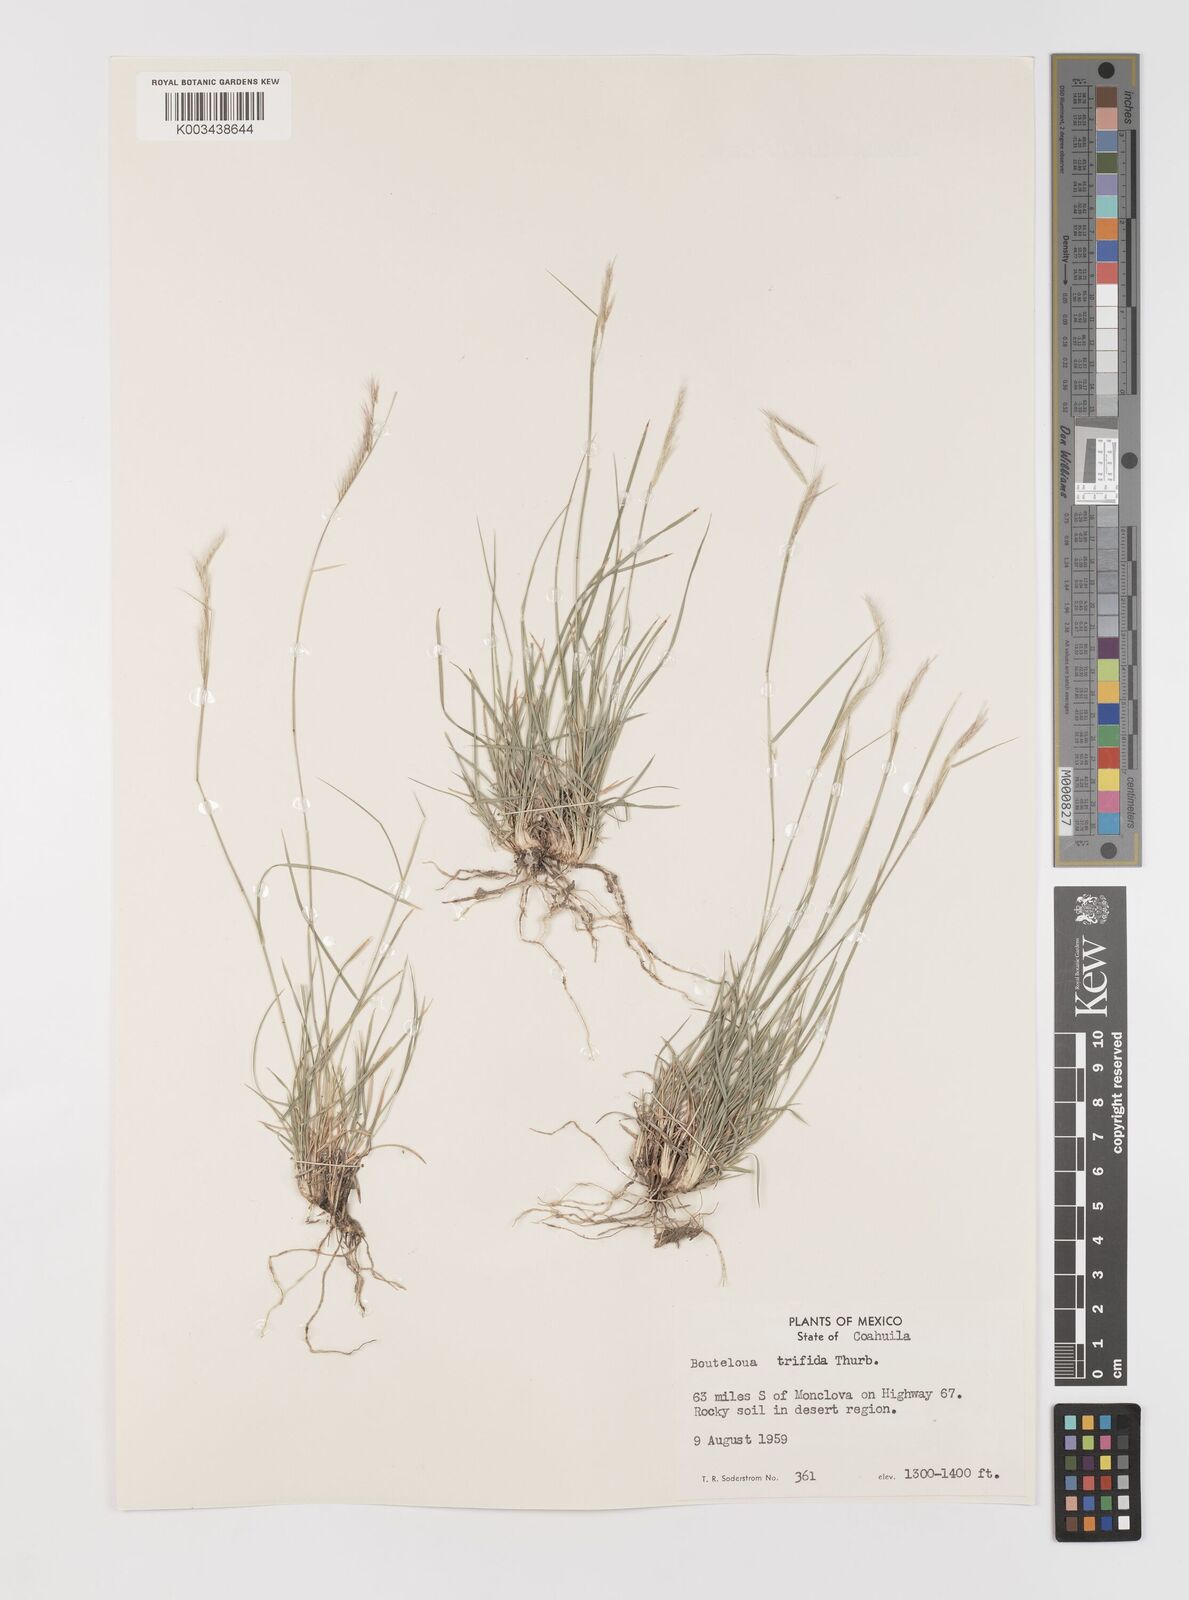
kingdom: Plantae
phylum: Tracheophyta
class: Liliopsida
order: Poales
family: Poaceae
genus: Bouteloua
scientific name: Bouteloua
